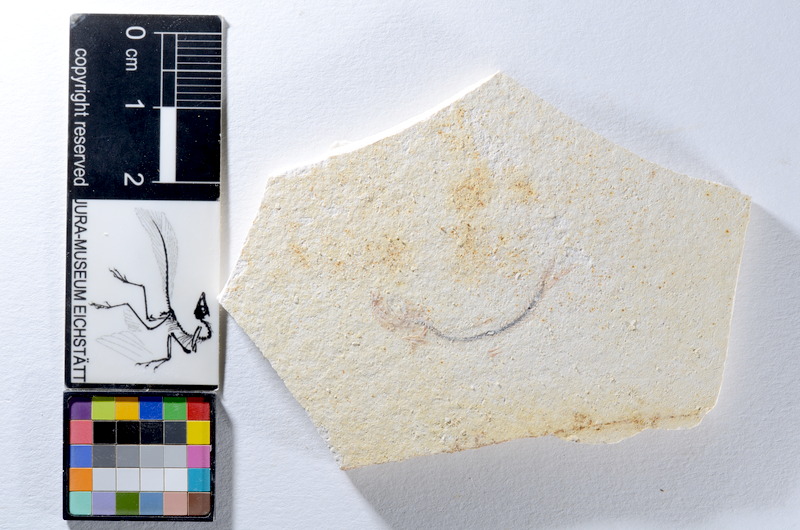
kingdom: Animalia
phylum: Chordata
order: Salmoniformes
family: Orthogonikleithridae
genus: Orthogonikleithrus
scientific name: Orthogonikleithrus hoelli
